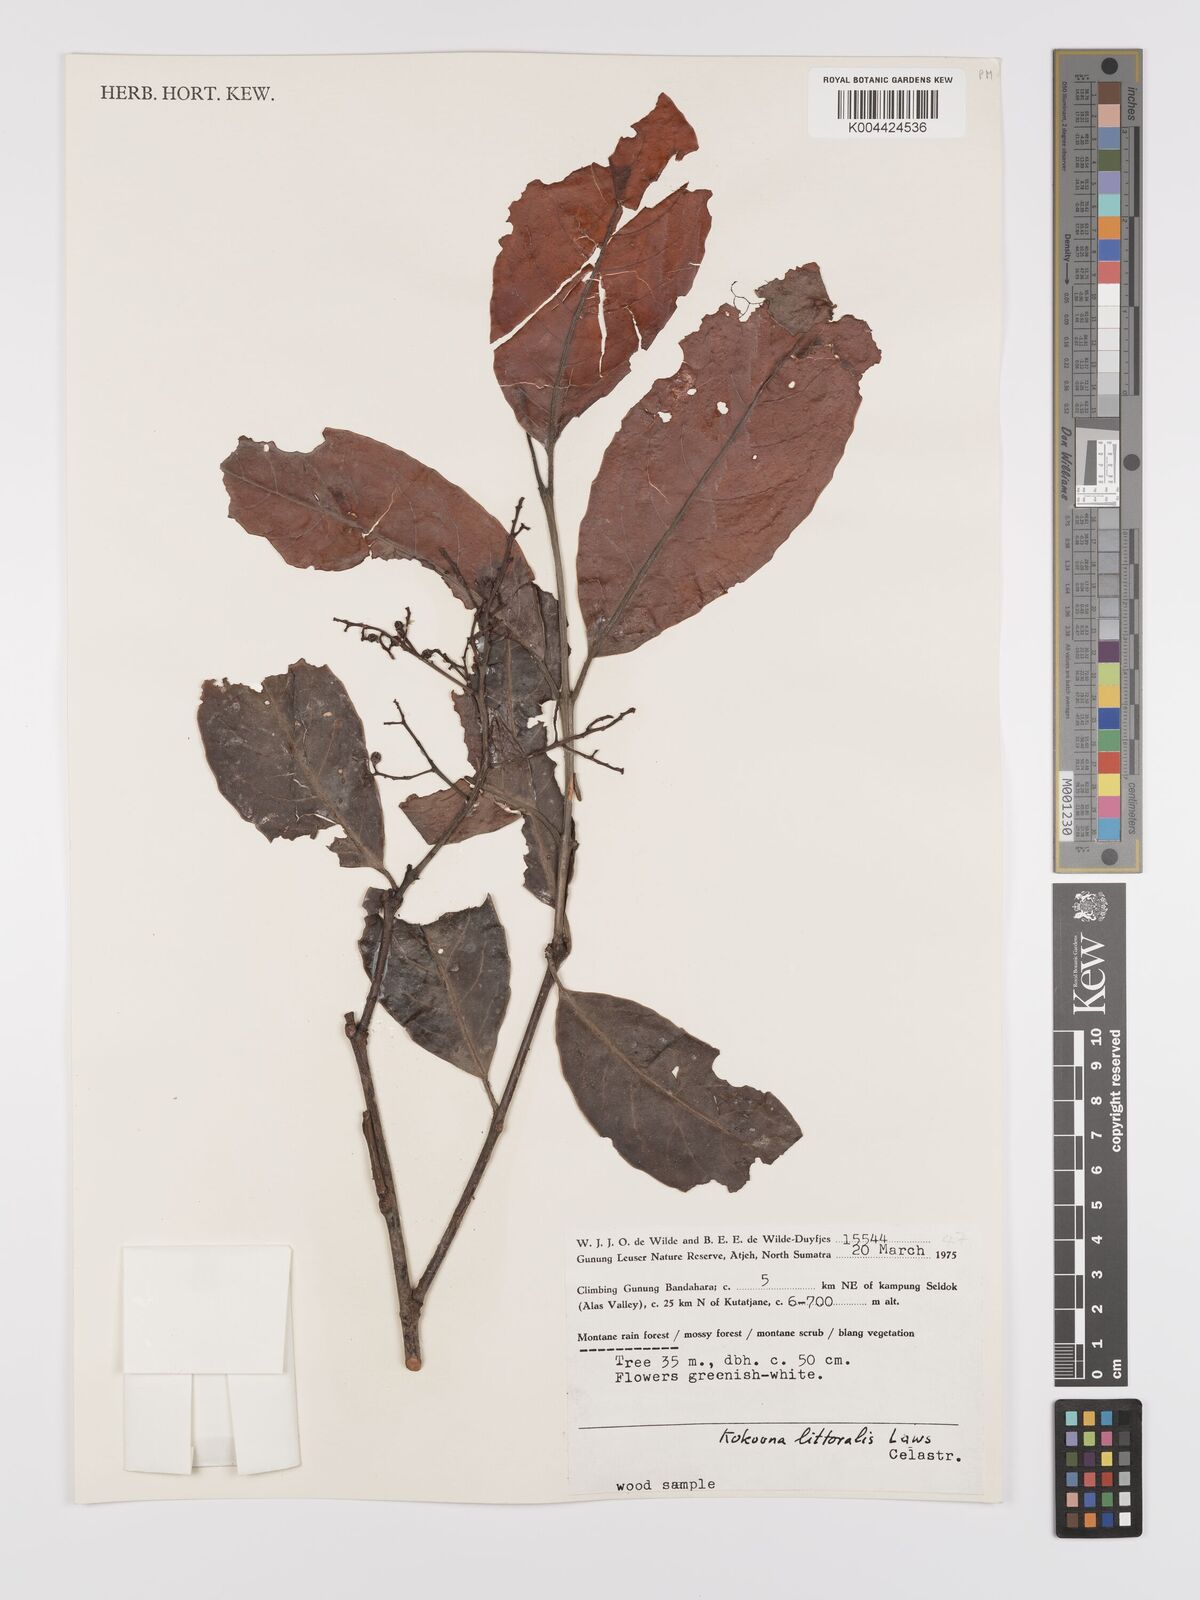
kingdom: Plantae
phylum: Tracheophyta
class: Magnoliopsida
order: Celastrales
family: Celastraceae
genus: Kokoona
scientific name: Kokoona littoralis
